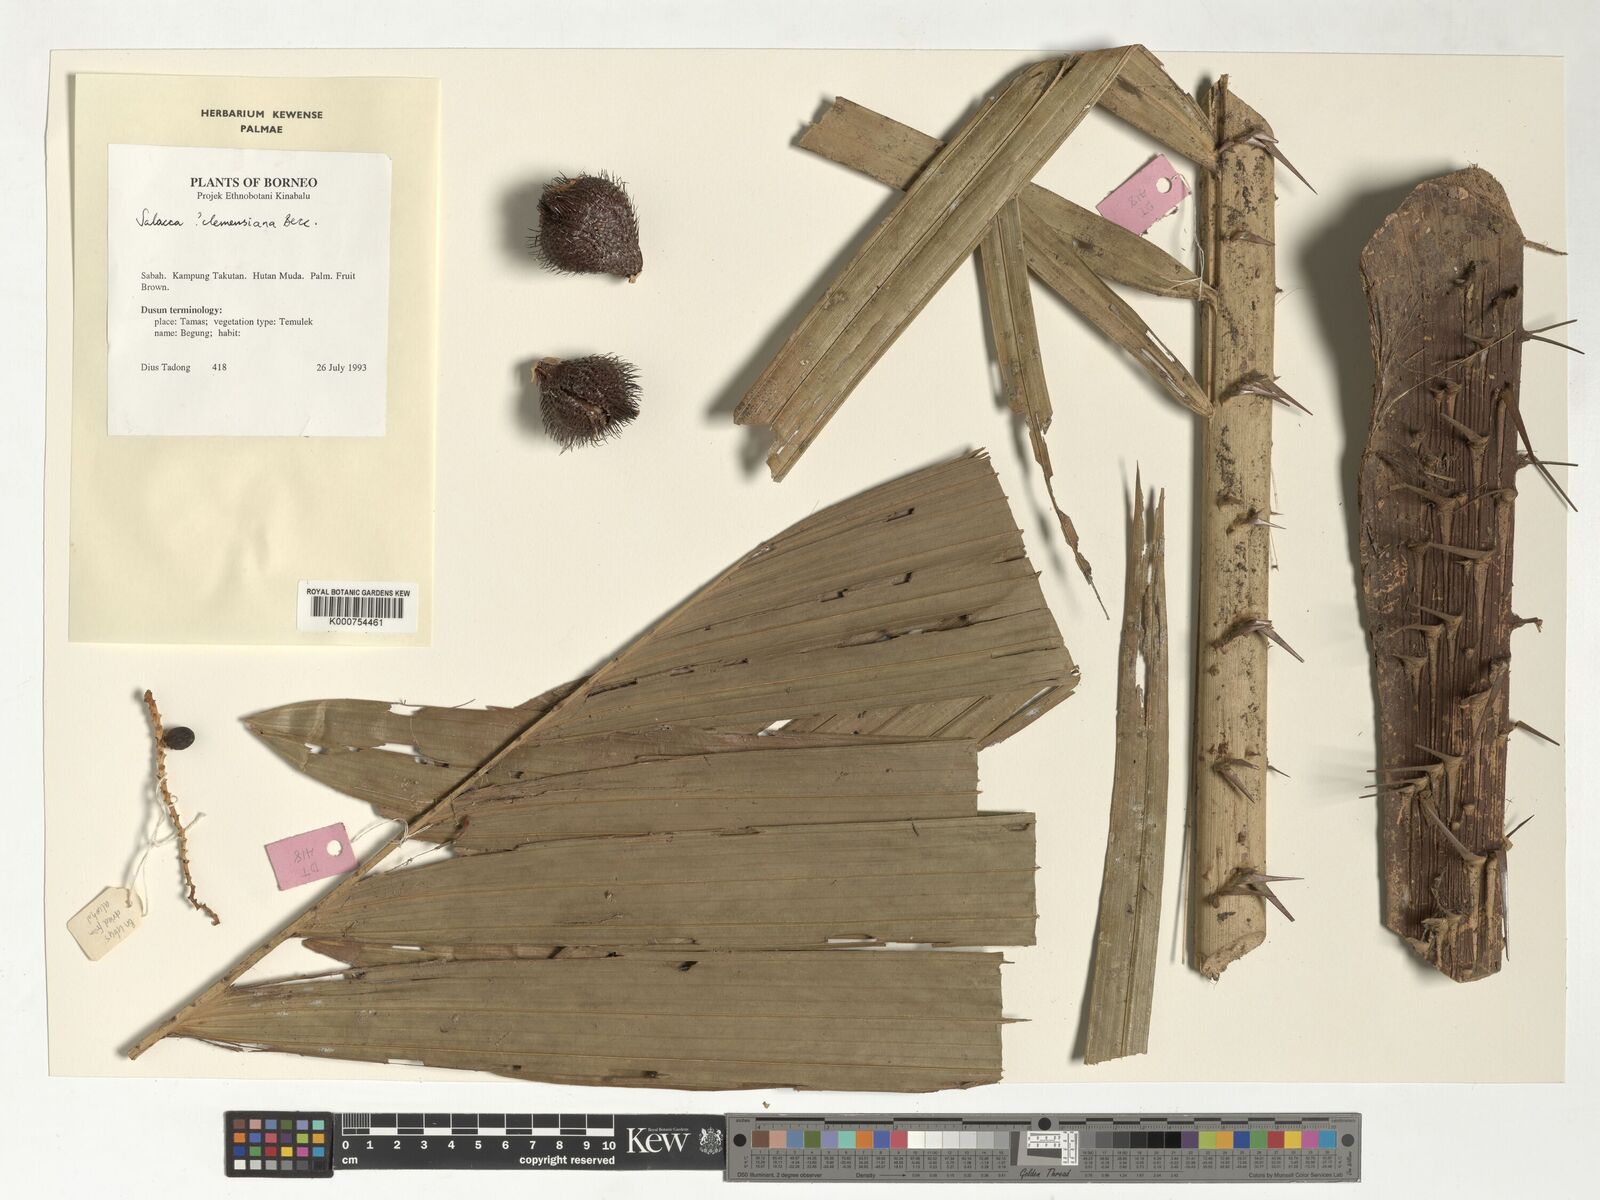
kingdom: Plantae
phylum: Tracheophyta
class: Liliopsida
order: Arecales
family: Arecaceae
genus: Salacca
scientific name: Salacca clemensiana
